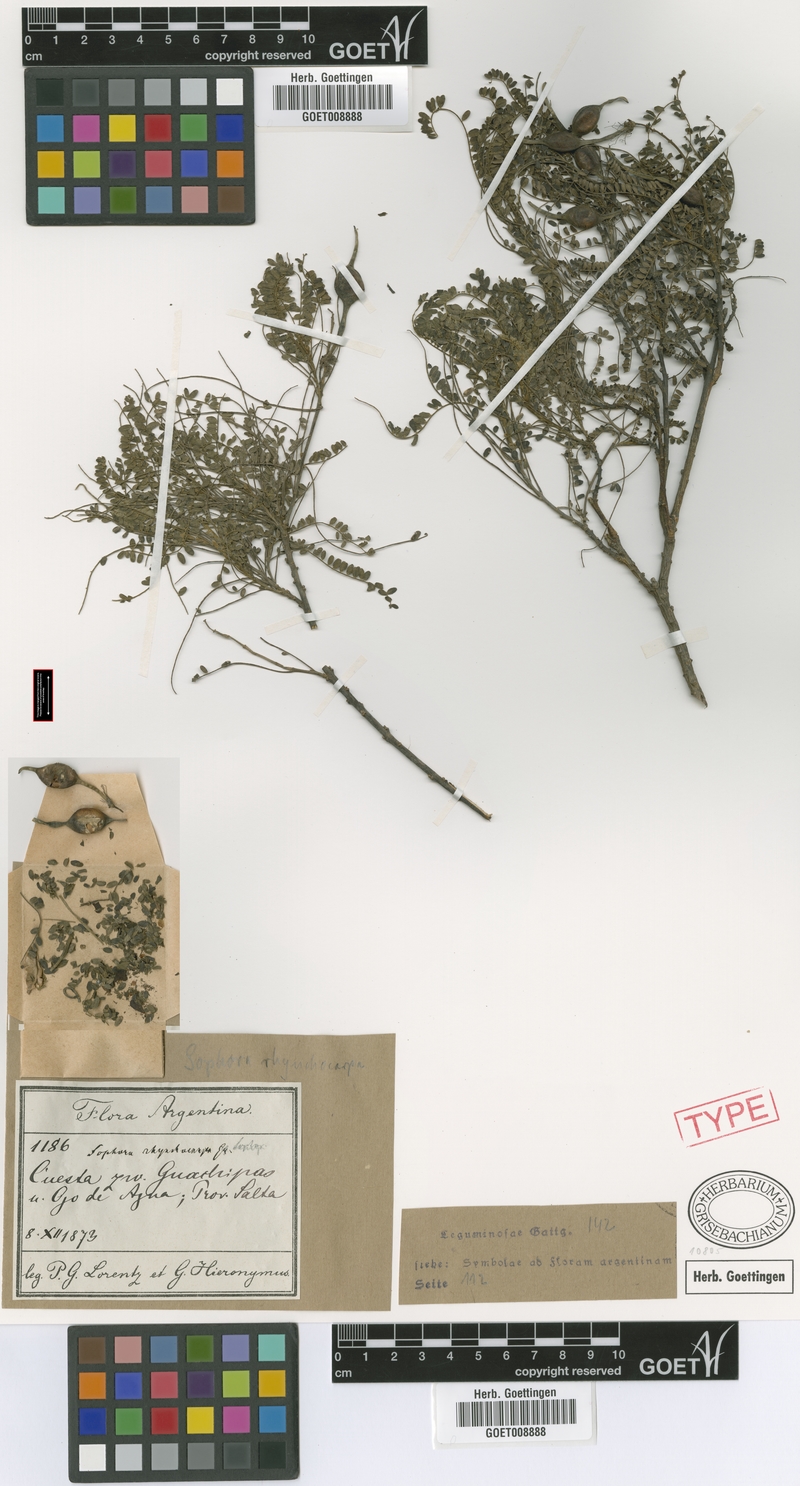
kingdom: Plantae
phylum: Tracheophyta
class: Magnoliopsida
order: Fabales
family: Fabaceae
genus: Sophora
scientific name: Sophora rhynchocarpa
